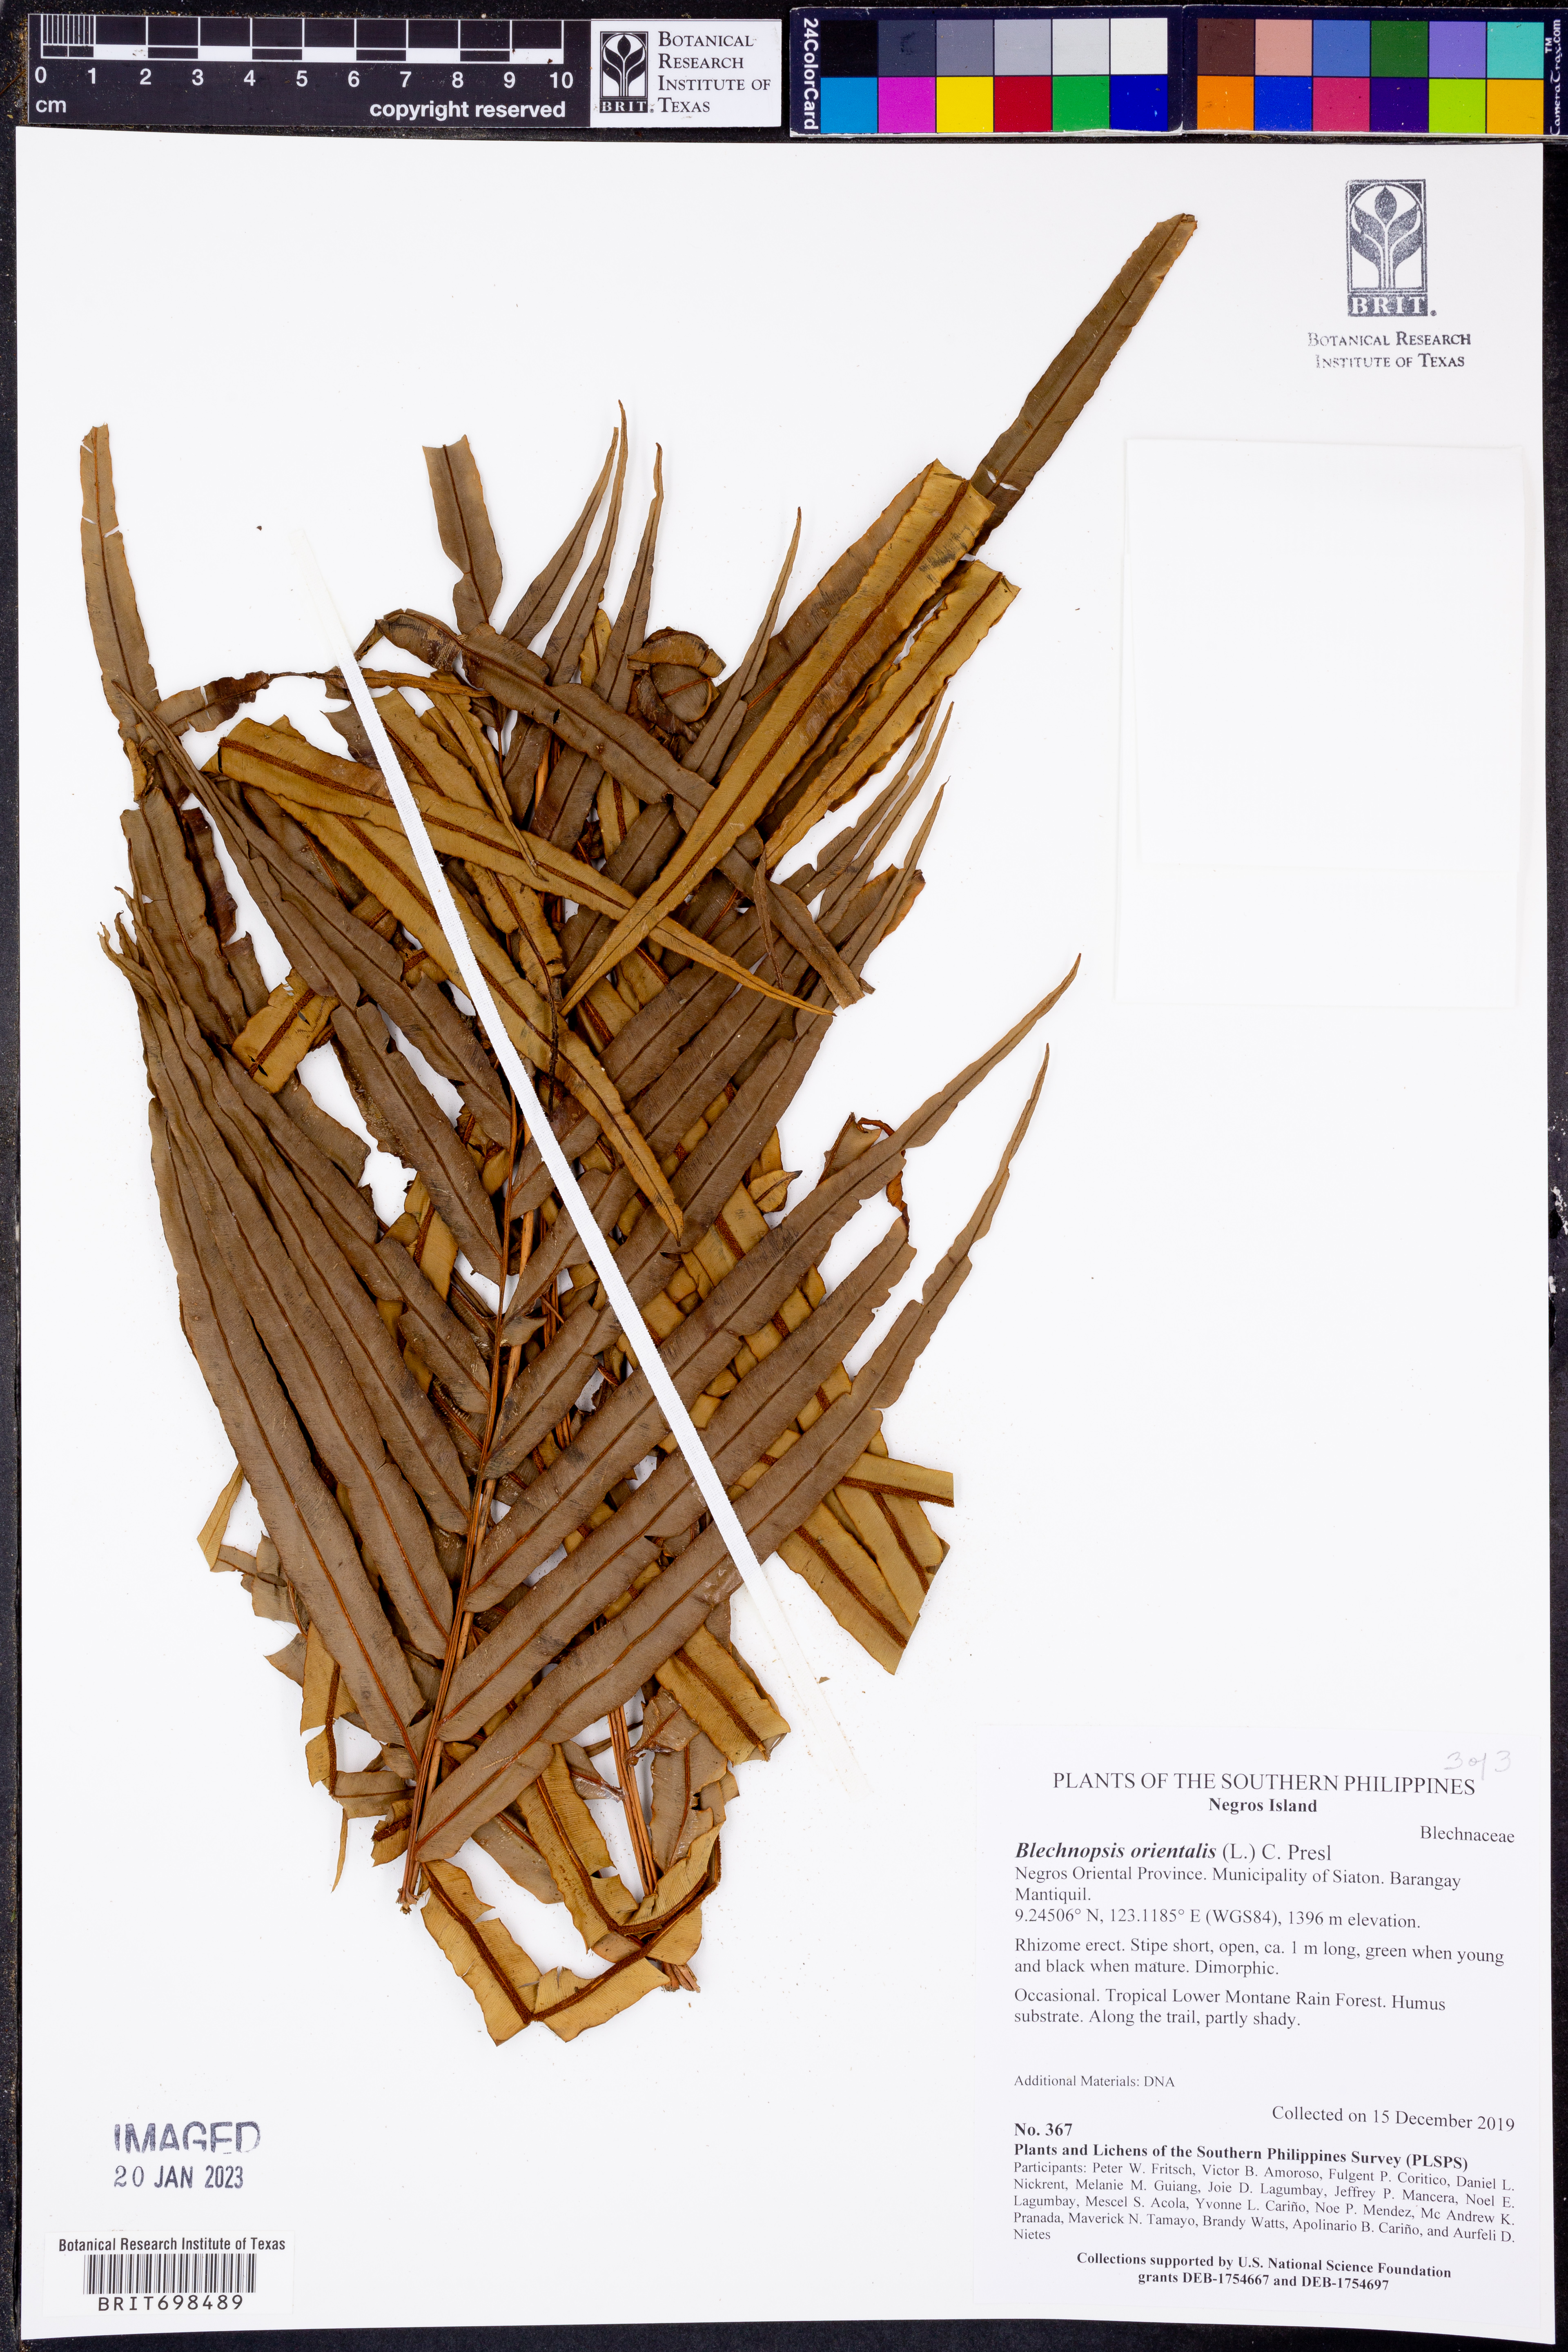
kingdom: Plantae
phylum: Tracheophyta
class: Polypodiopsida
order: Polypodiales
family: Blechnaceae
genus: Blechnopsis
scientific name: Blechnopsis orientalis
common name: Oriental blechnum
